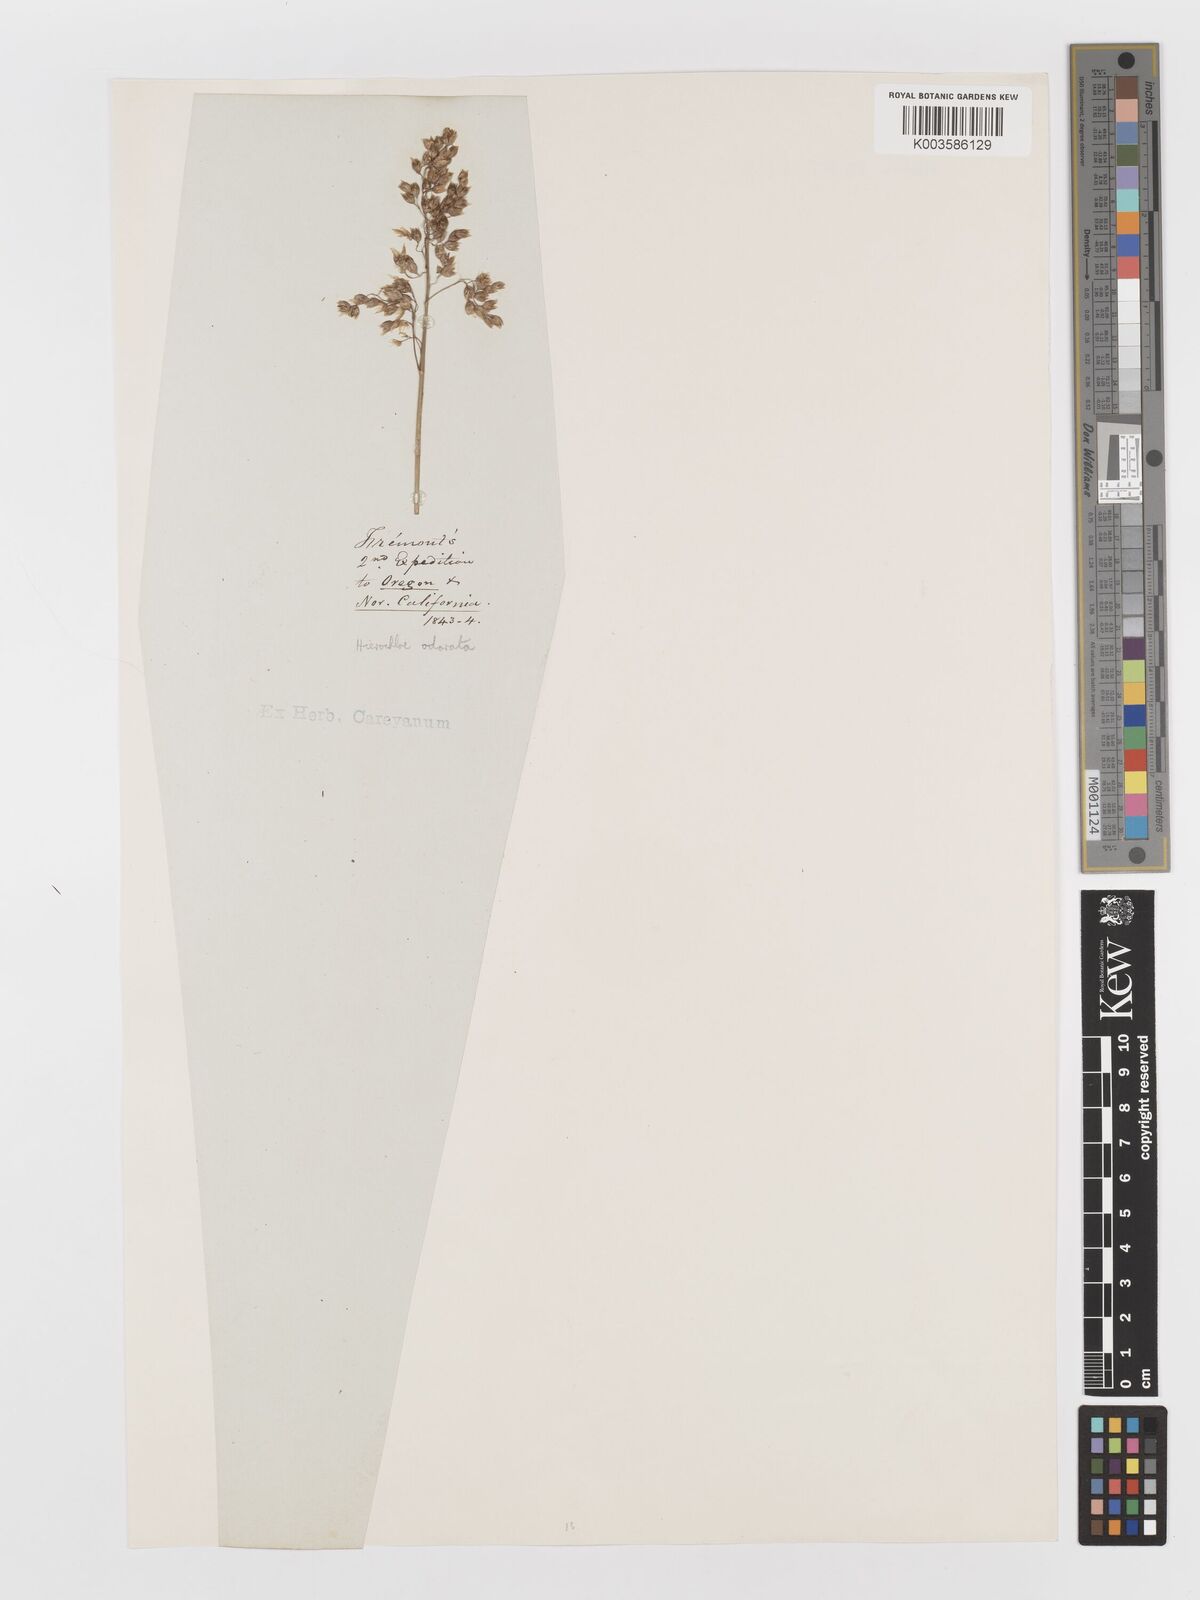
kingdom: Plantae
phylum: Tracheophyta
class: Liliopsida
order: Poales
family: Poaceae
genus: Anthoxanthum
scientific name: Anthoxanthum nitens
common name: Holy grass
